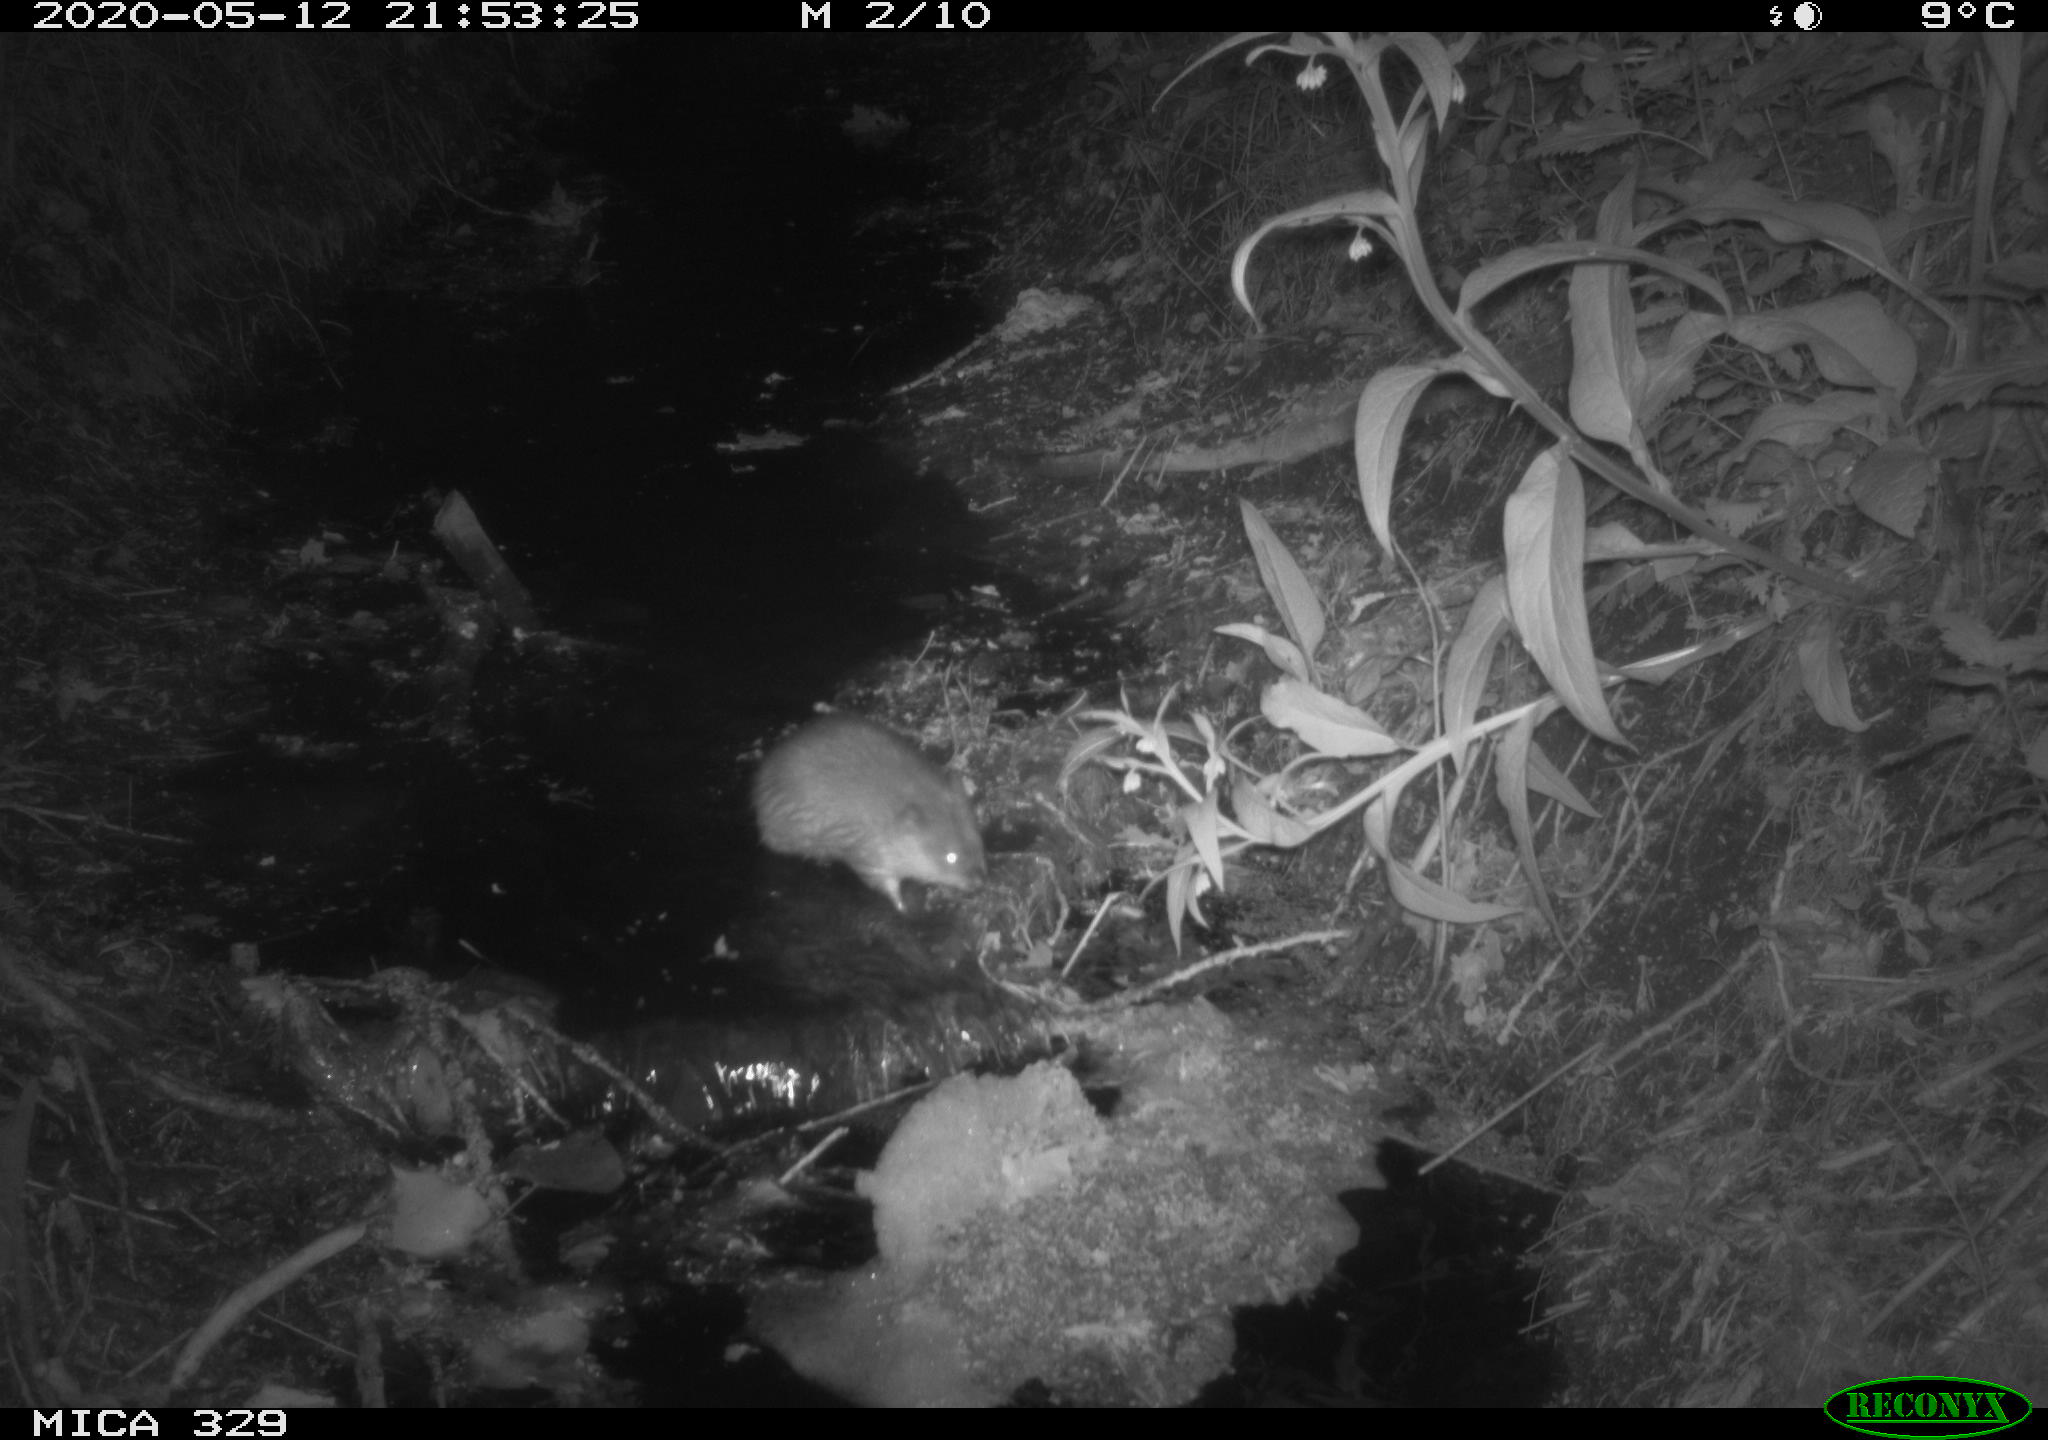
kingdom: Animalia
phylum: Chordata
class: Mammalia
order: Rodentia
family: Cricetidae
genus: Ondatra
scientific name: Ondatra zibethicus
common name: Muskrat
